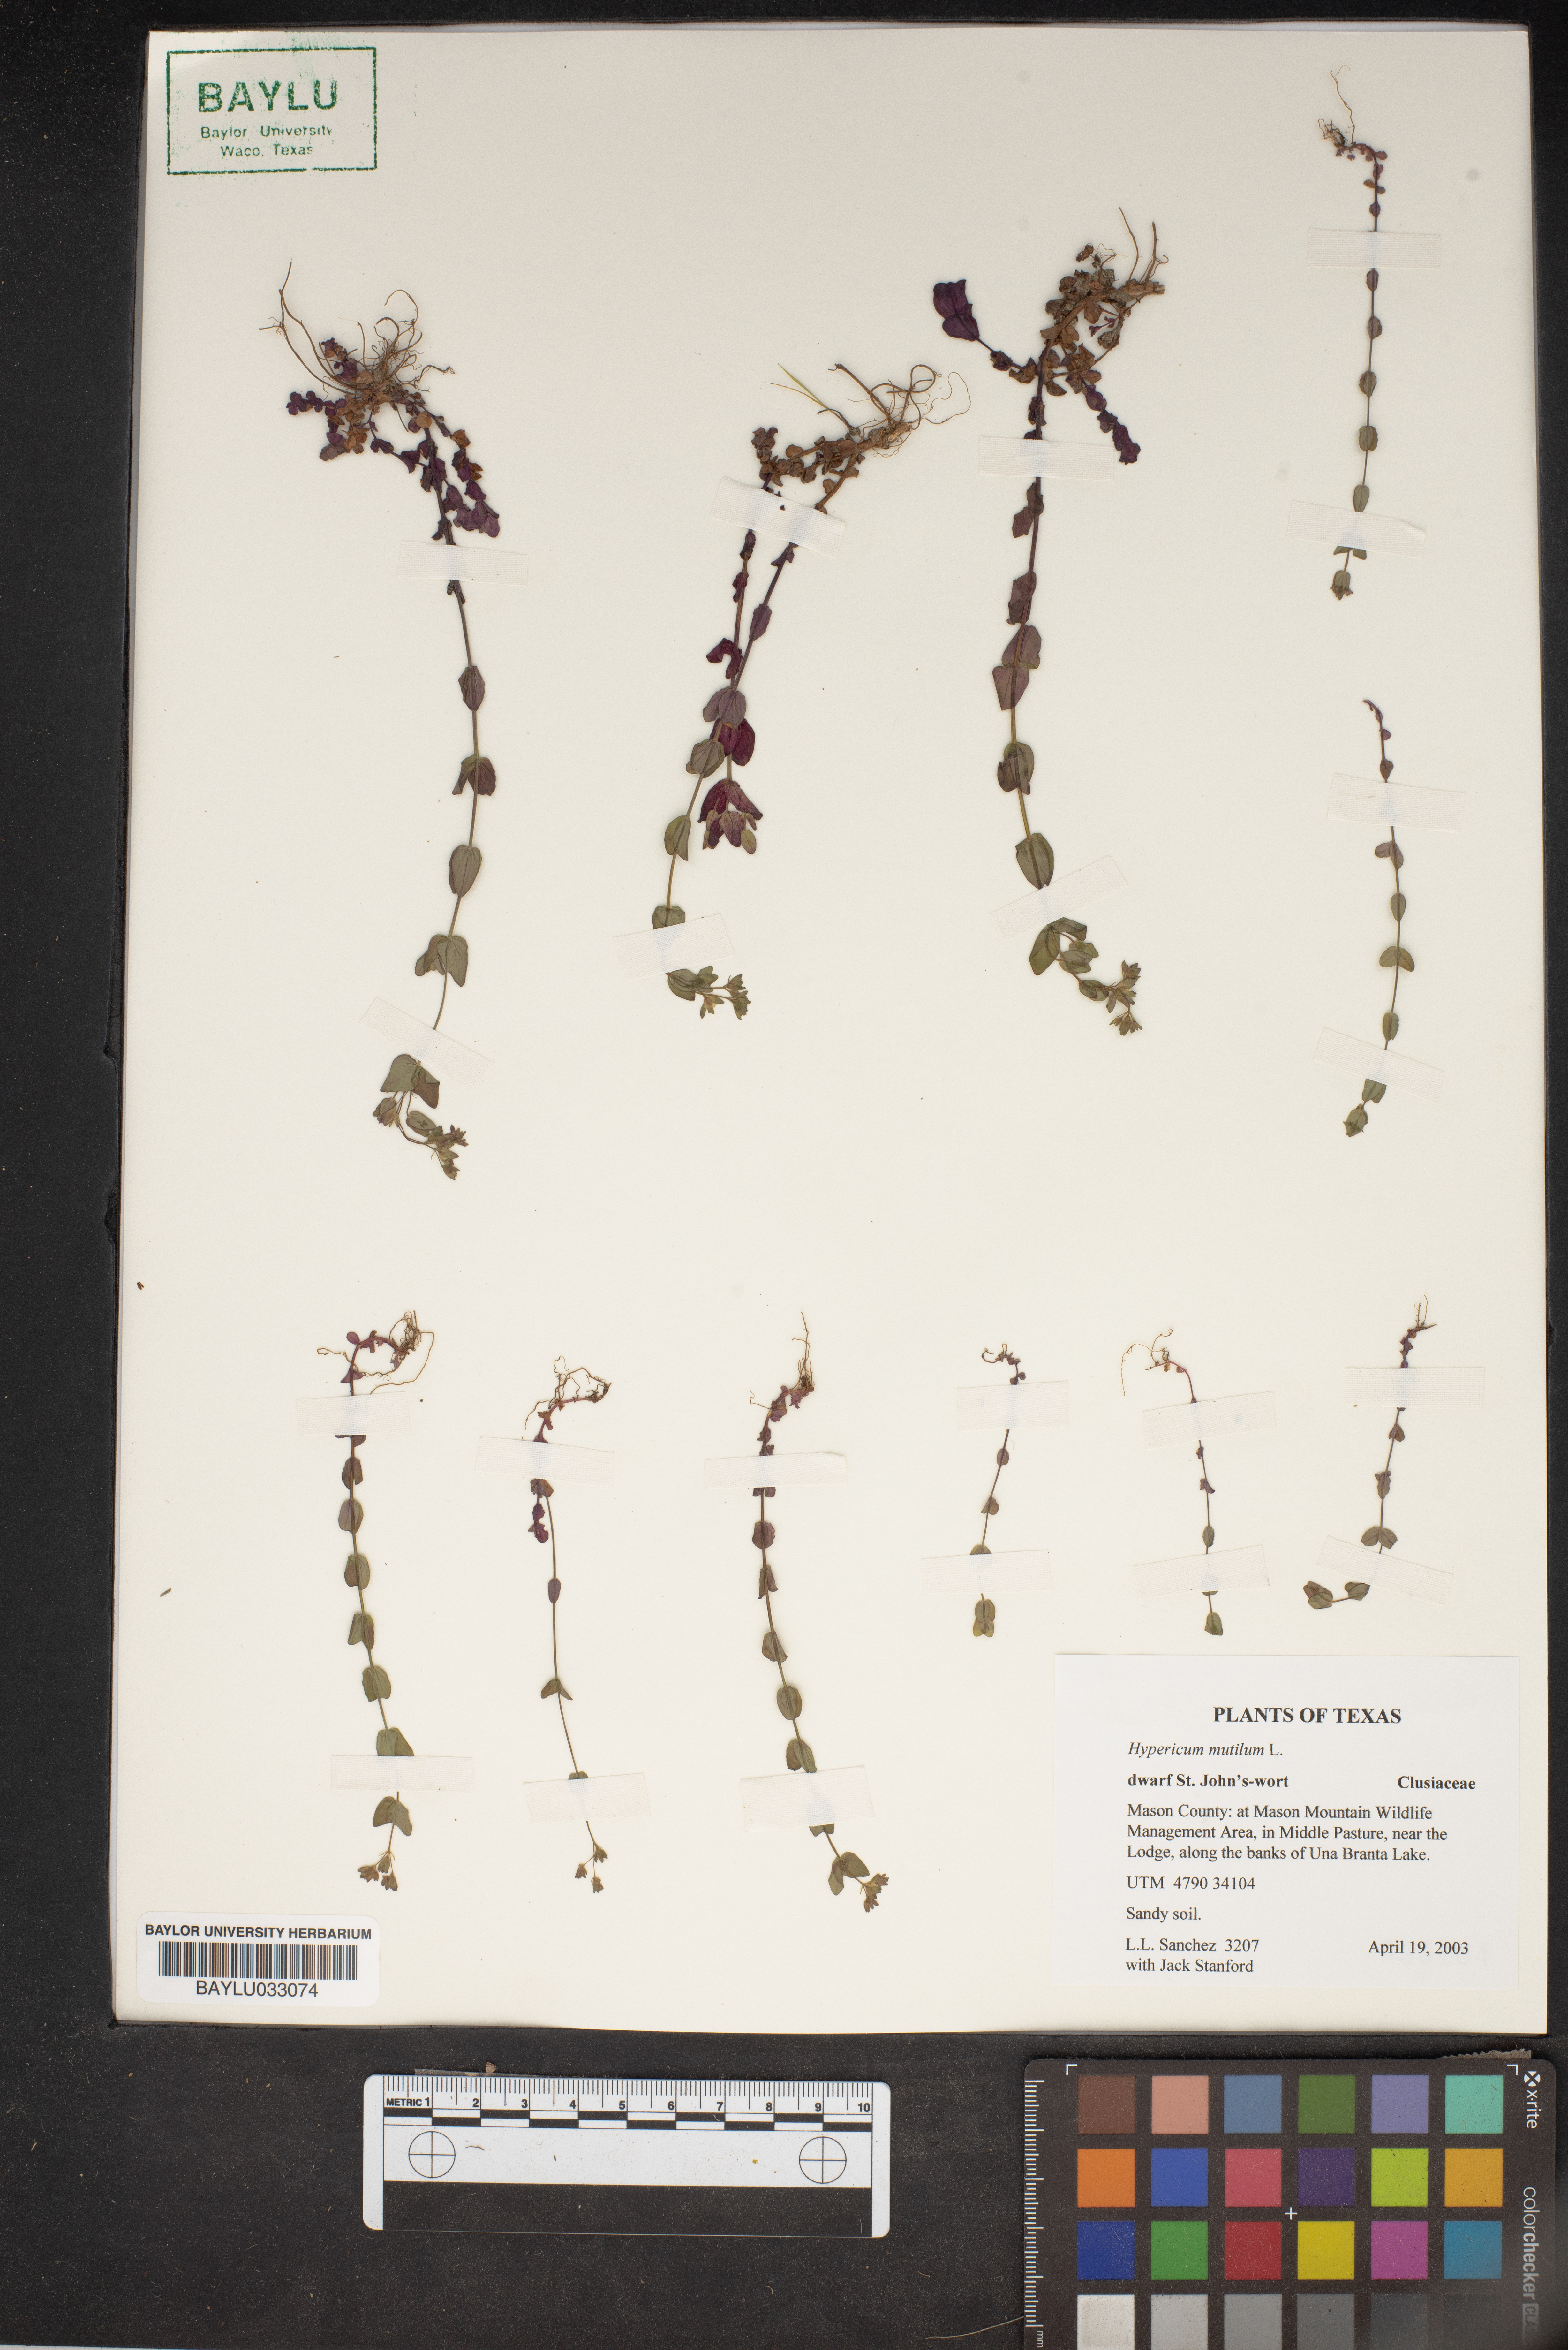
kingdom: Plantae
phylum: Tracheophyta
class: Magnoliopsida
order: Malpighiales
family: Hypericaceae
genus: Hypericum
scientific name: Hypericum mutilum
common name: Dwarf st. john's-wort
